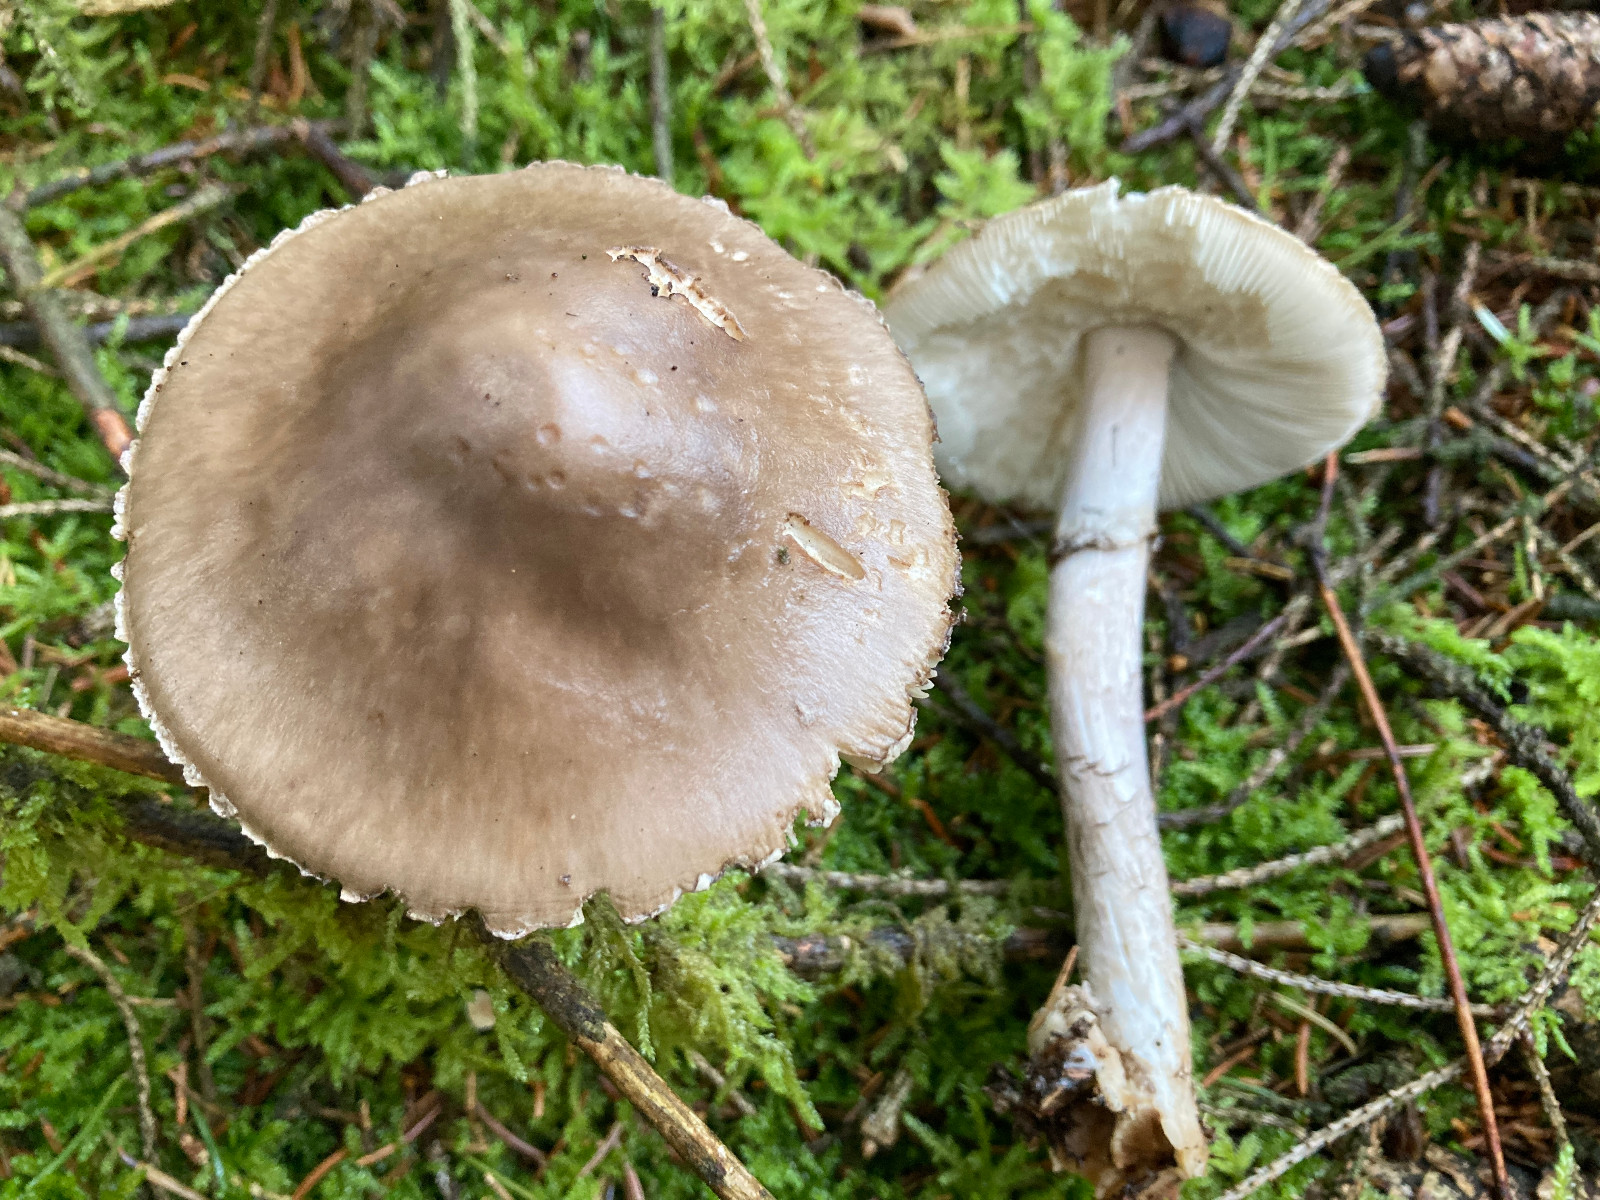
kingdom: Fungi
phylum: Basidiomycota
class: Agaricomycetes
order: Agaricales
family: Amanitaceae
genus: Amanita
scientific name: Amanita porphyria
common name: porfyr-fluesvamp
